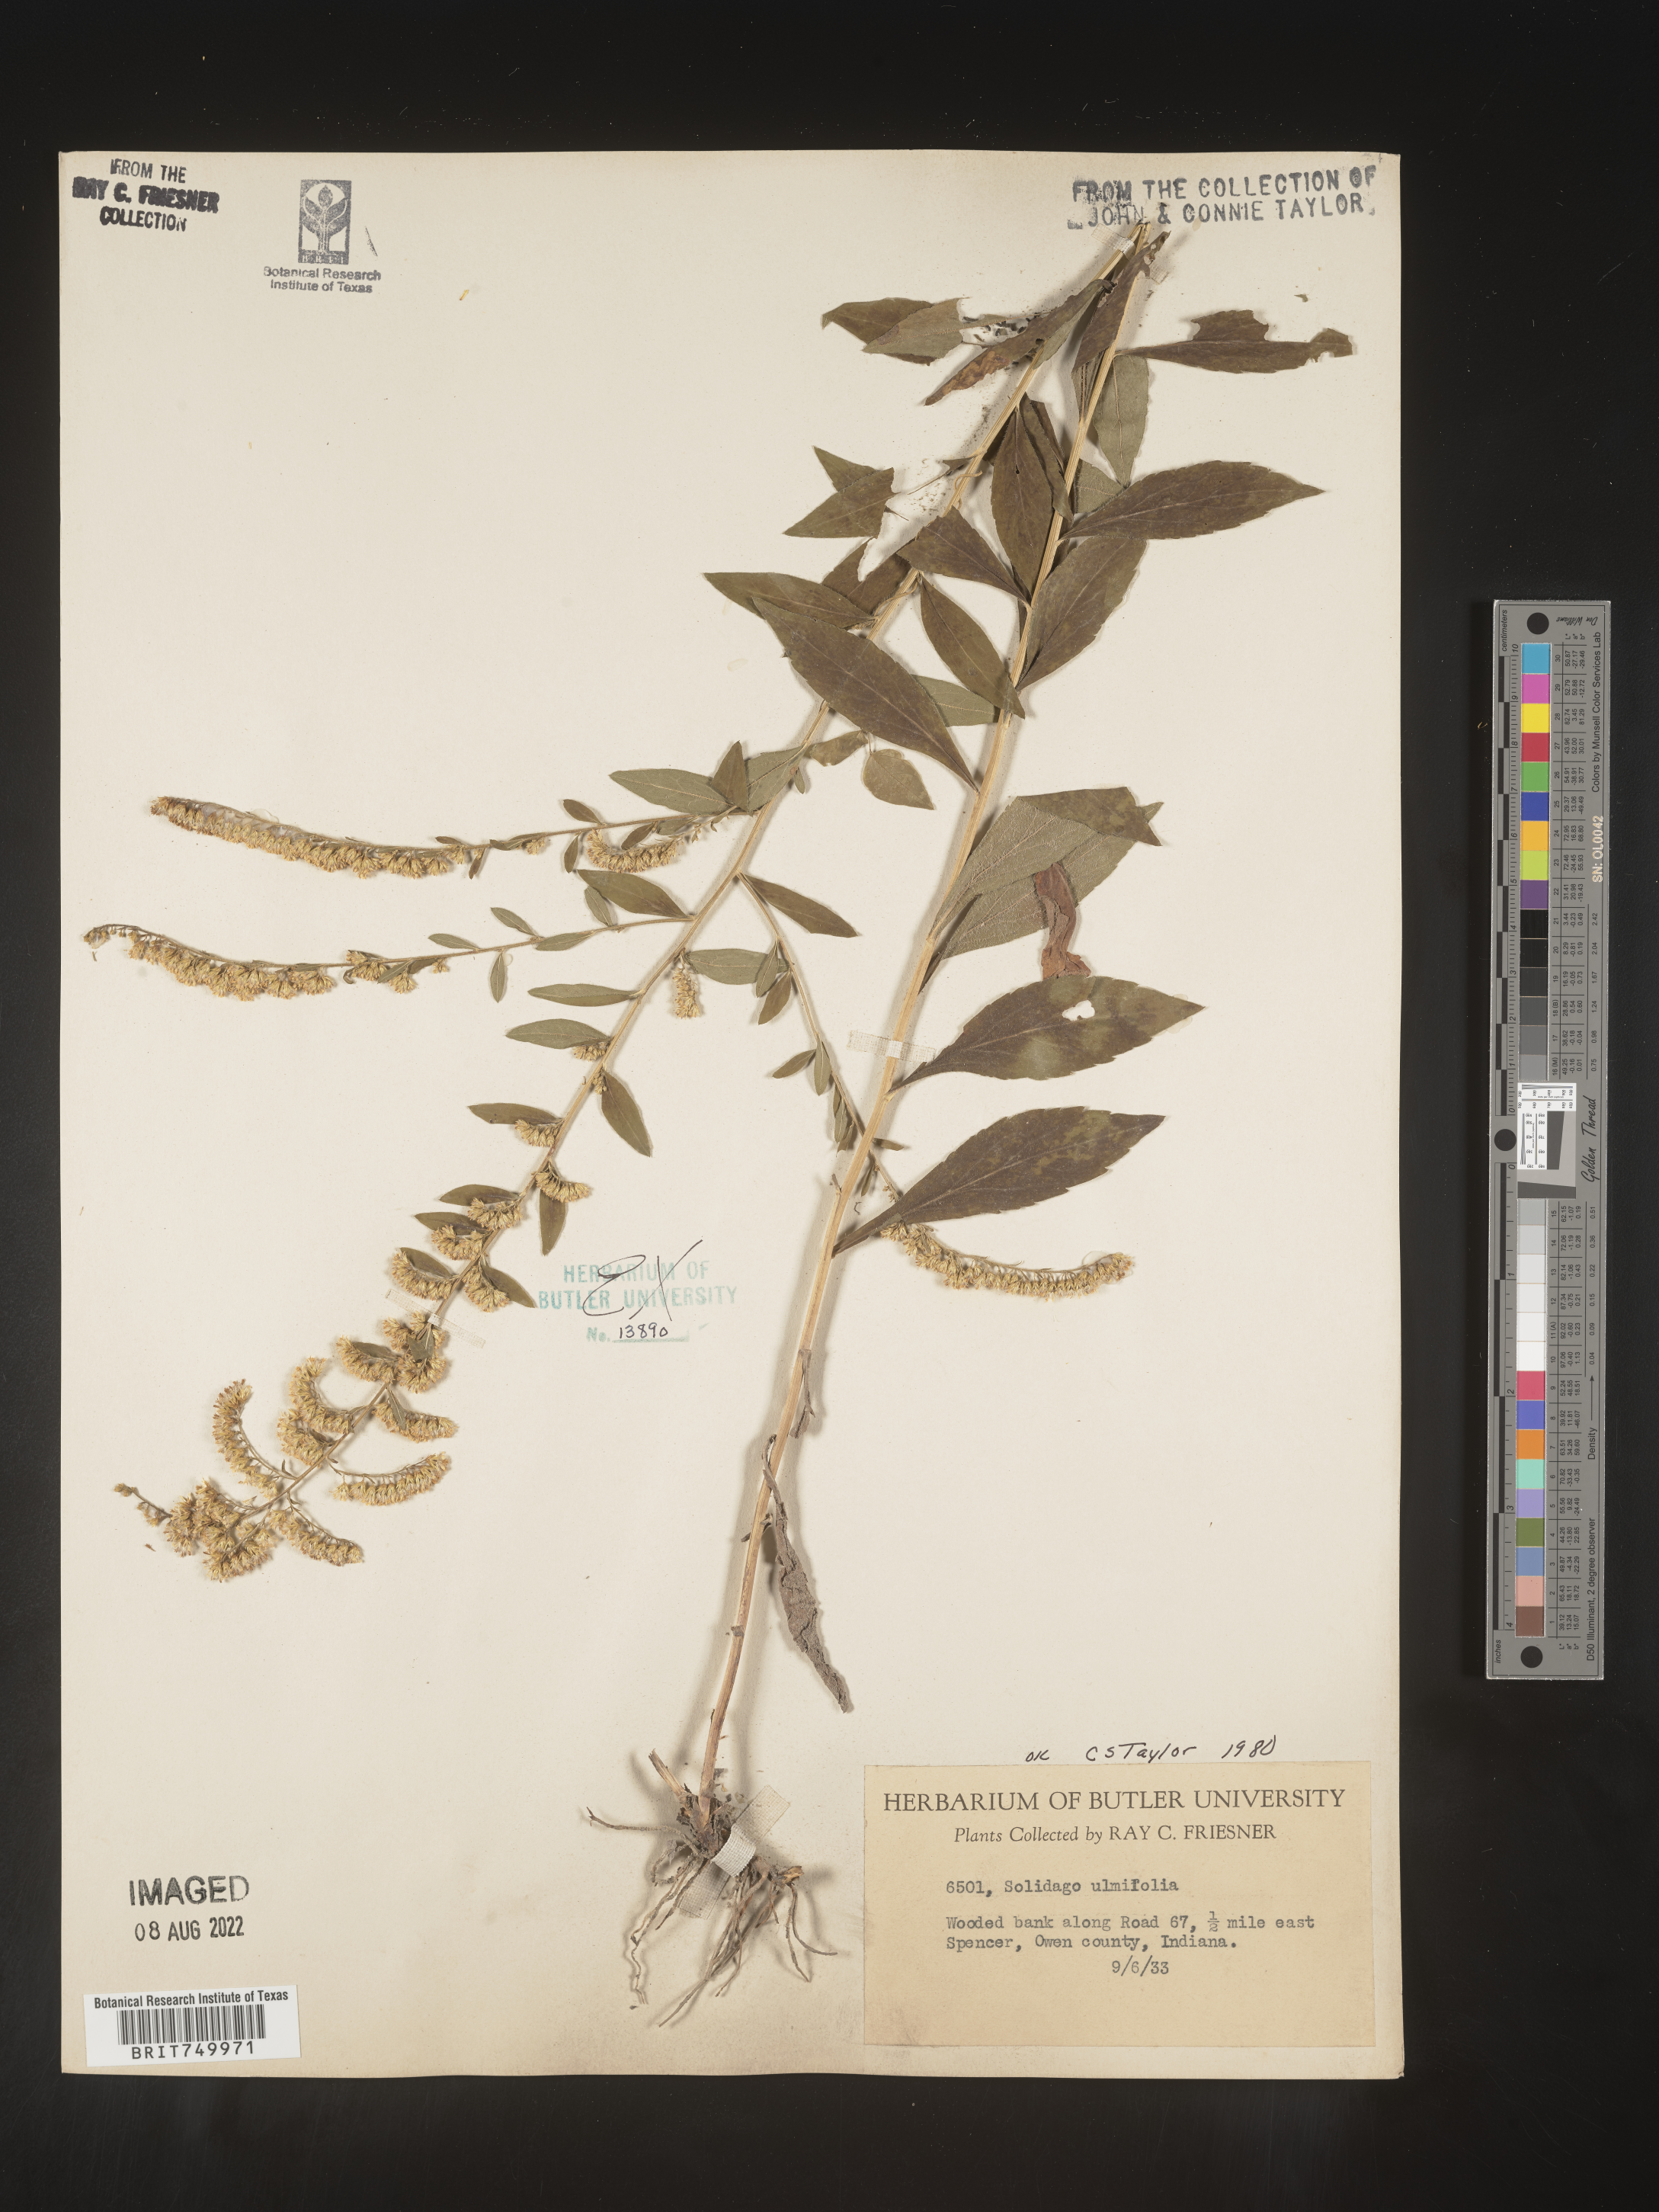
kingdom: Plantae
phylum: Tracheophyta
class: Magnoliopsida
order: Asterales
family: Asteraceae
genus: Solidago
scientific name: Solidago ulmifolia
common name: Elm-leaf goldenrod
